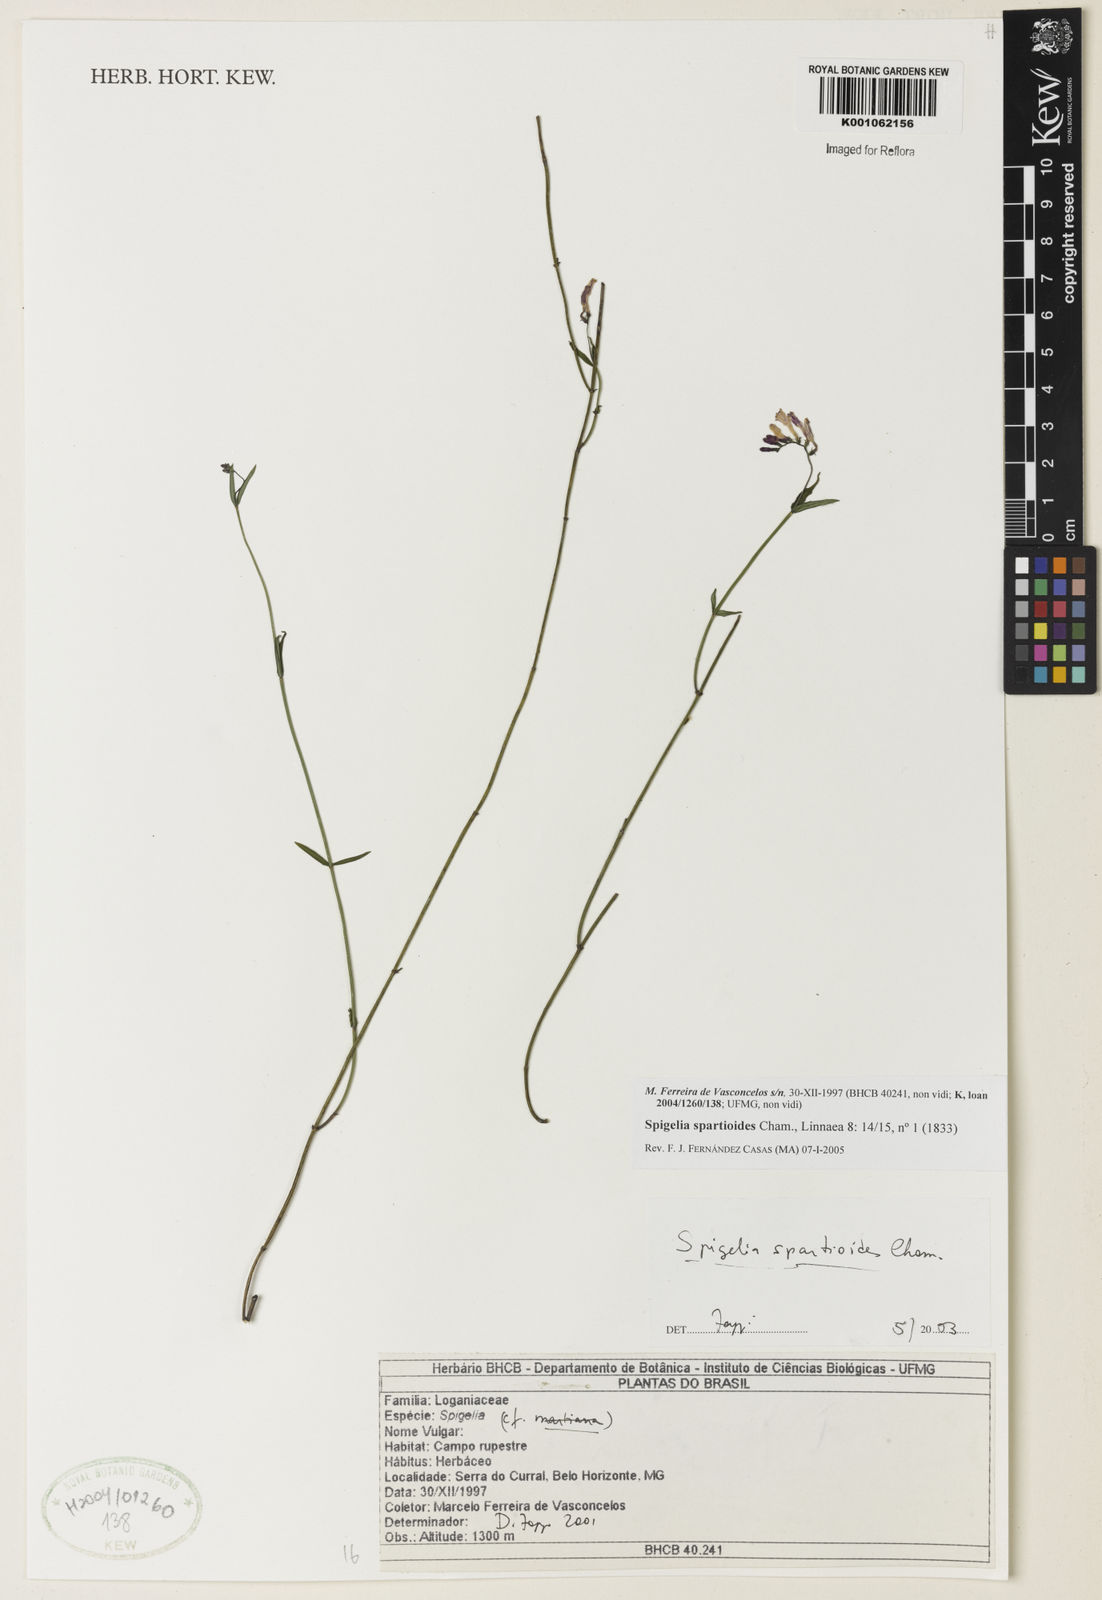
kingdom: Plantae
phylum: Tracheophyta
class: Magnoliopsida
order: Gentianales
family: Loganiaceae
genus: Spigelia
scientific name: Spigelia spartioides
